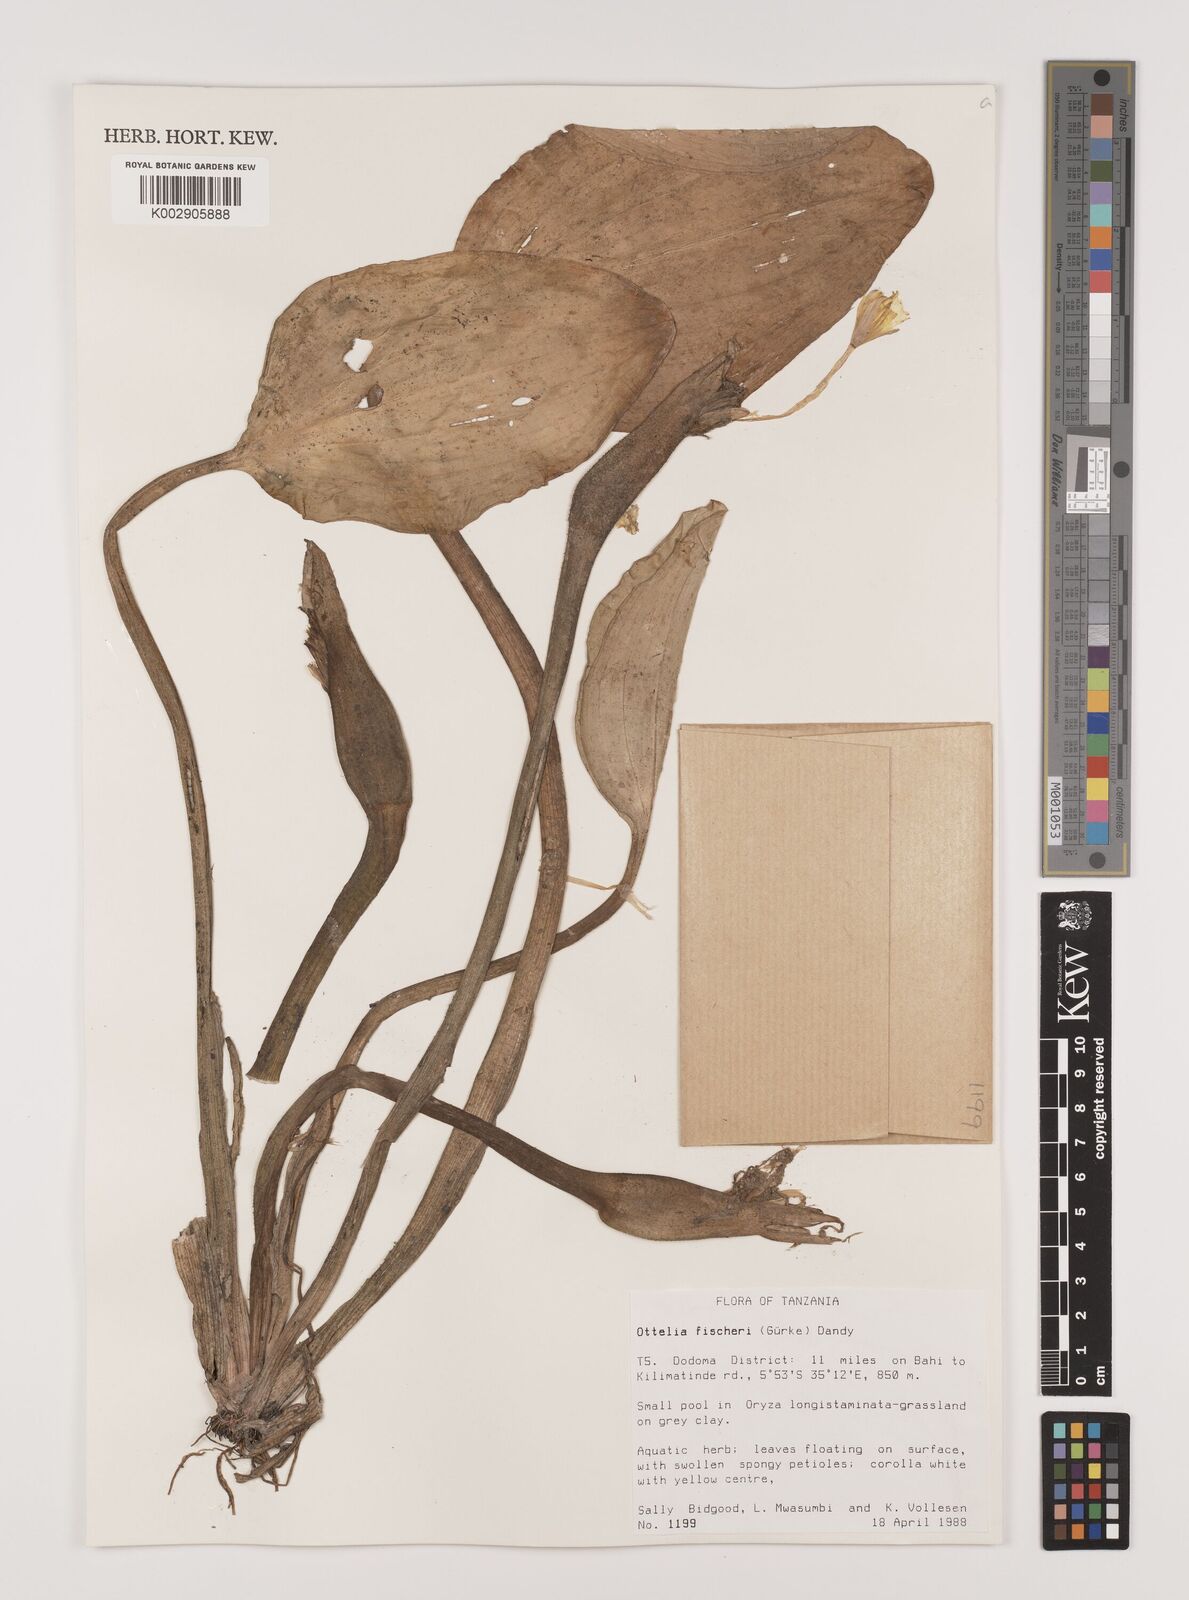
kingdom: Plantae
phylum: Tracheophyta
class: Liliopsida
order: Alismatales
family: Hydrocharitaceae
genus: Ottelia
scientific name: Ottelia fischeri
